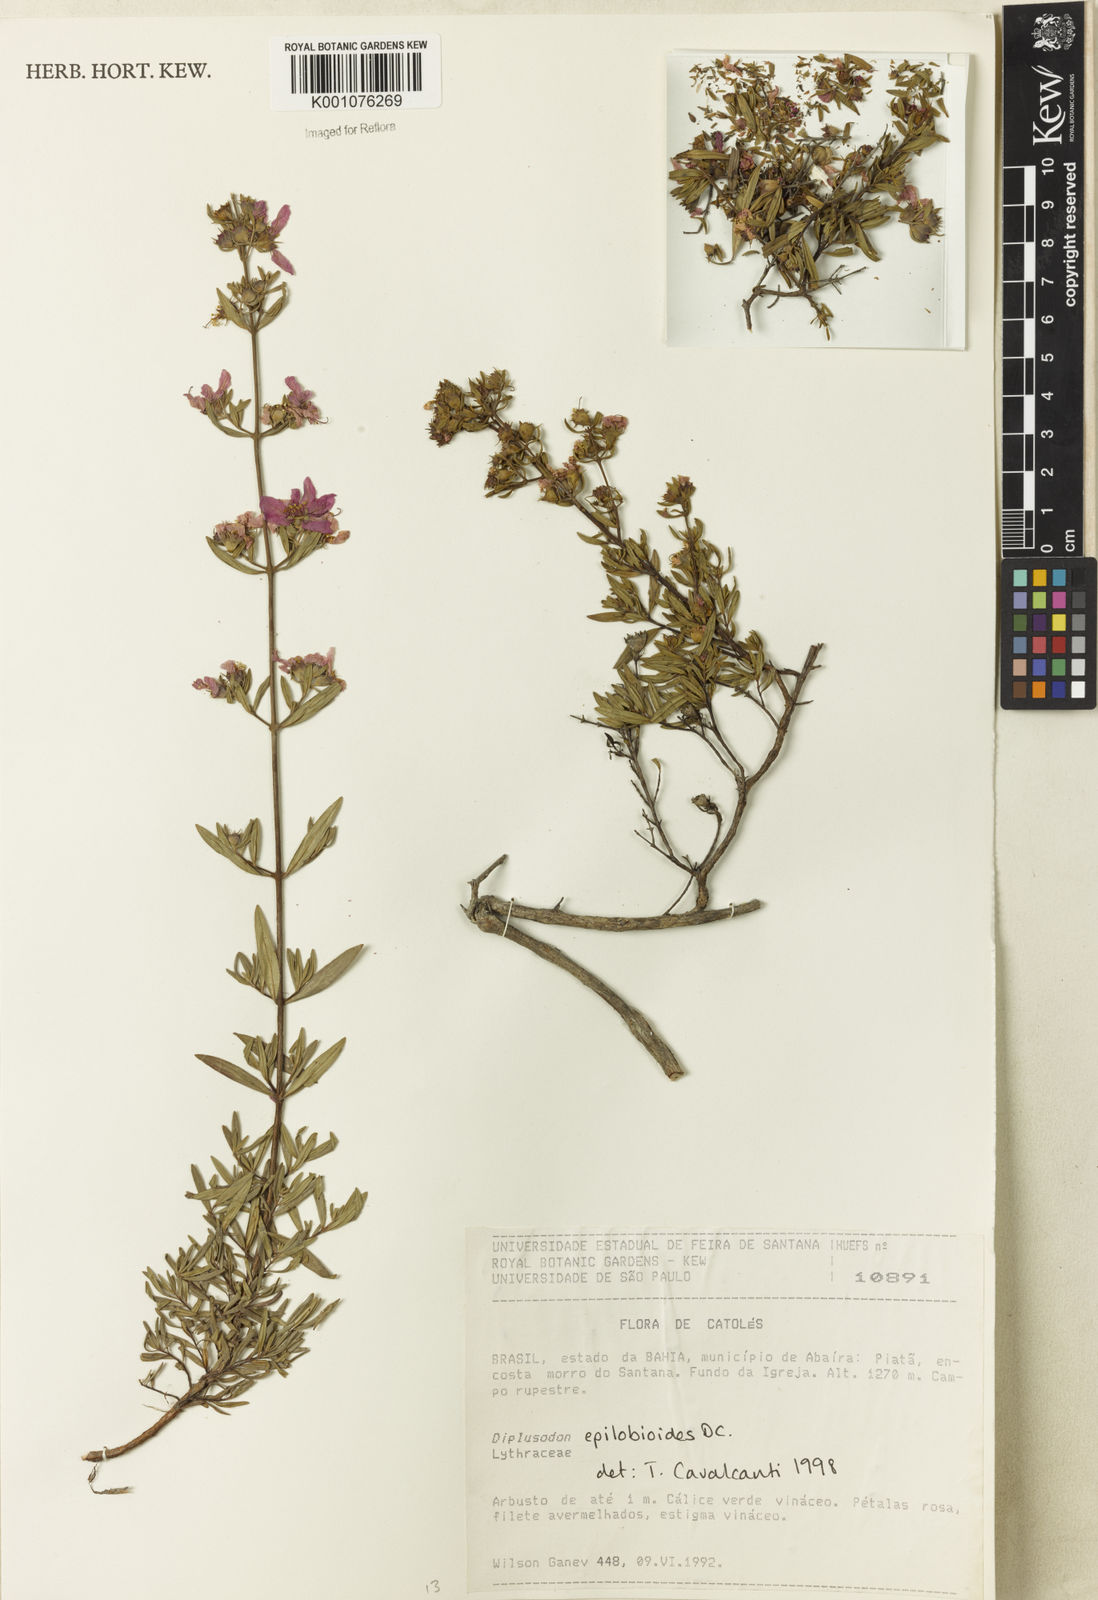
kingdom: Plantae
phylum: Tracheophyta
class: Magnoliopsida
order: Myrtales
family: Lythraceae
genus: Diplusodon
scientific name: Diplusodon epilobioides
